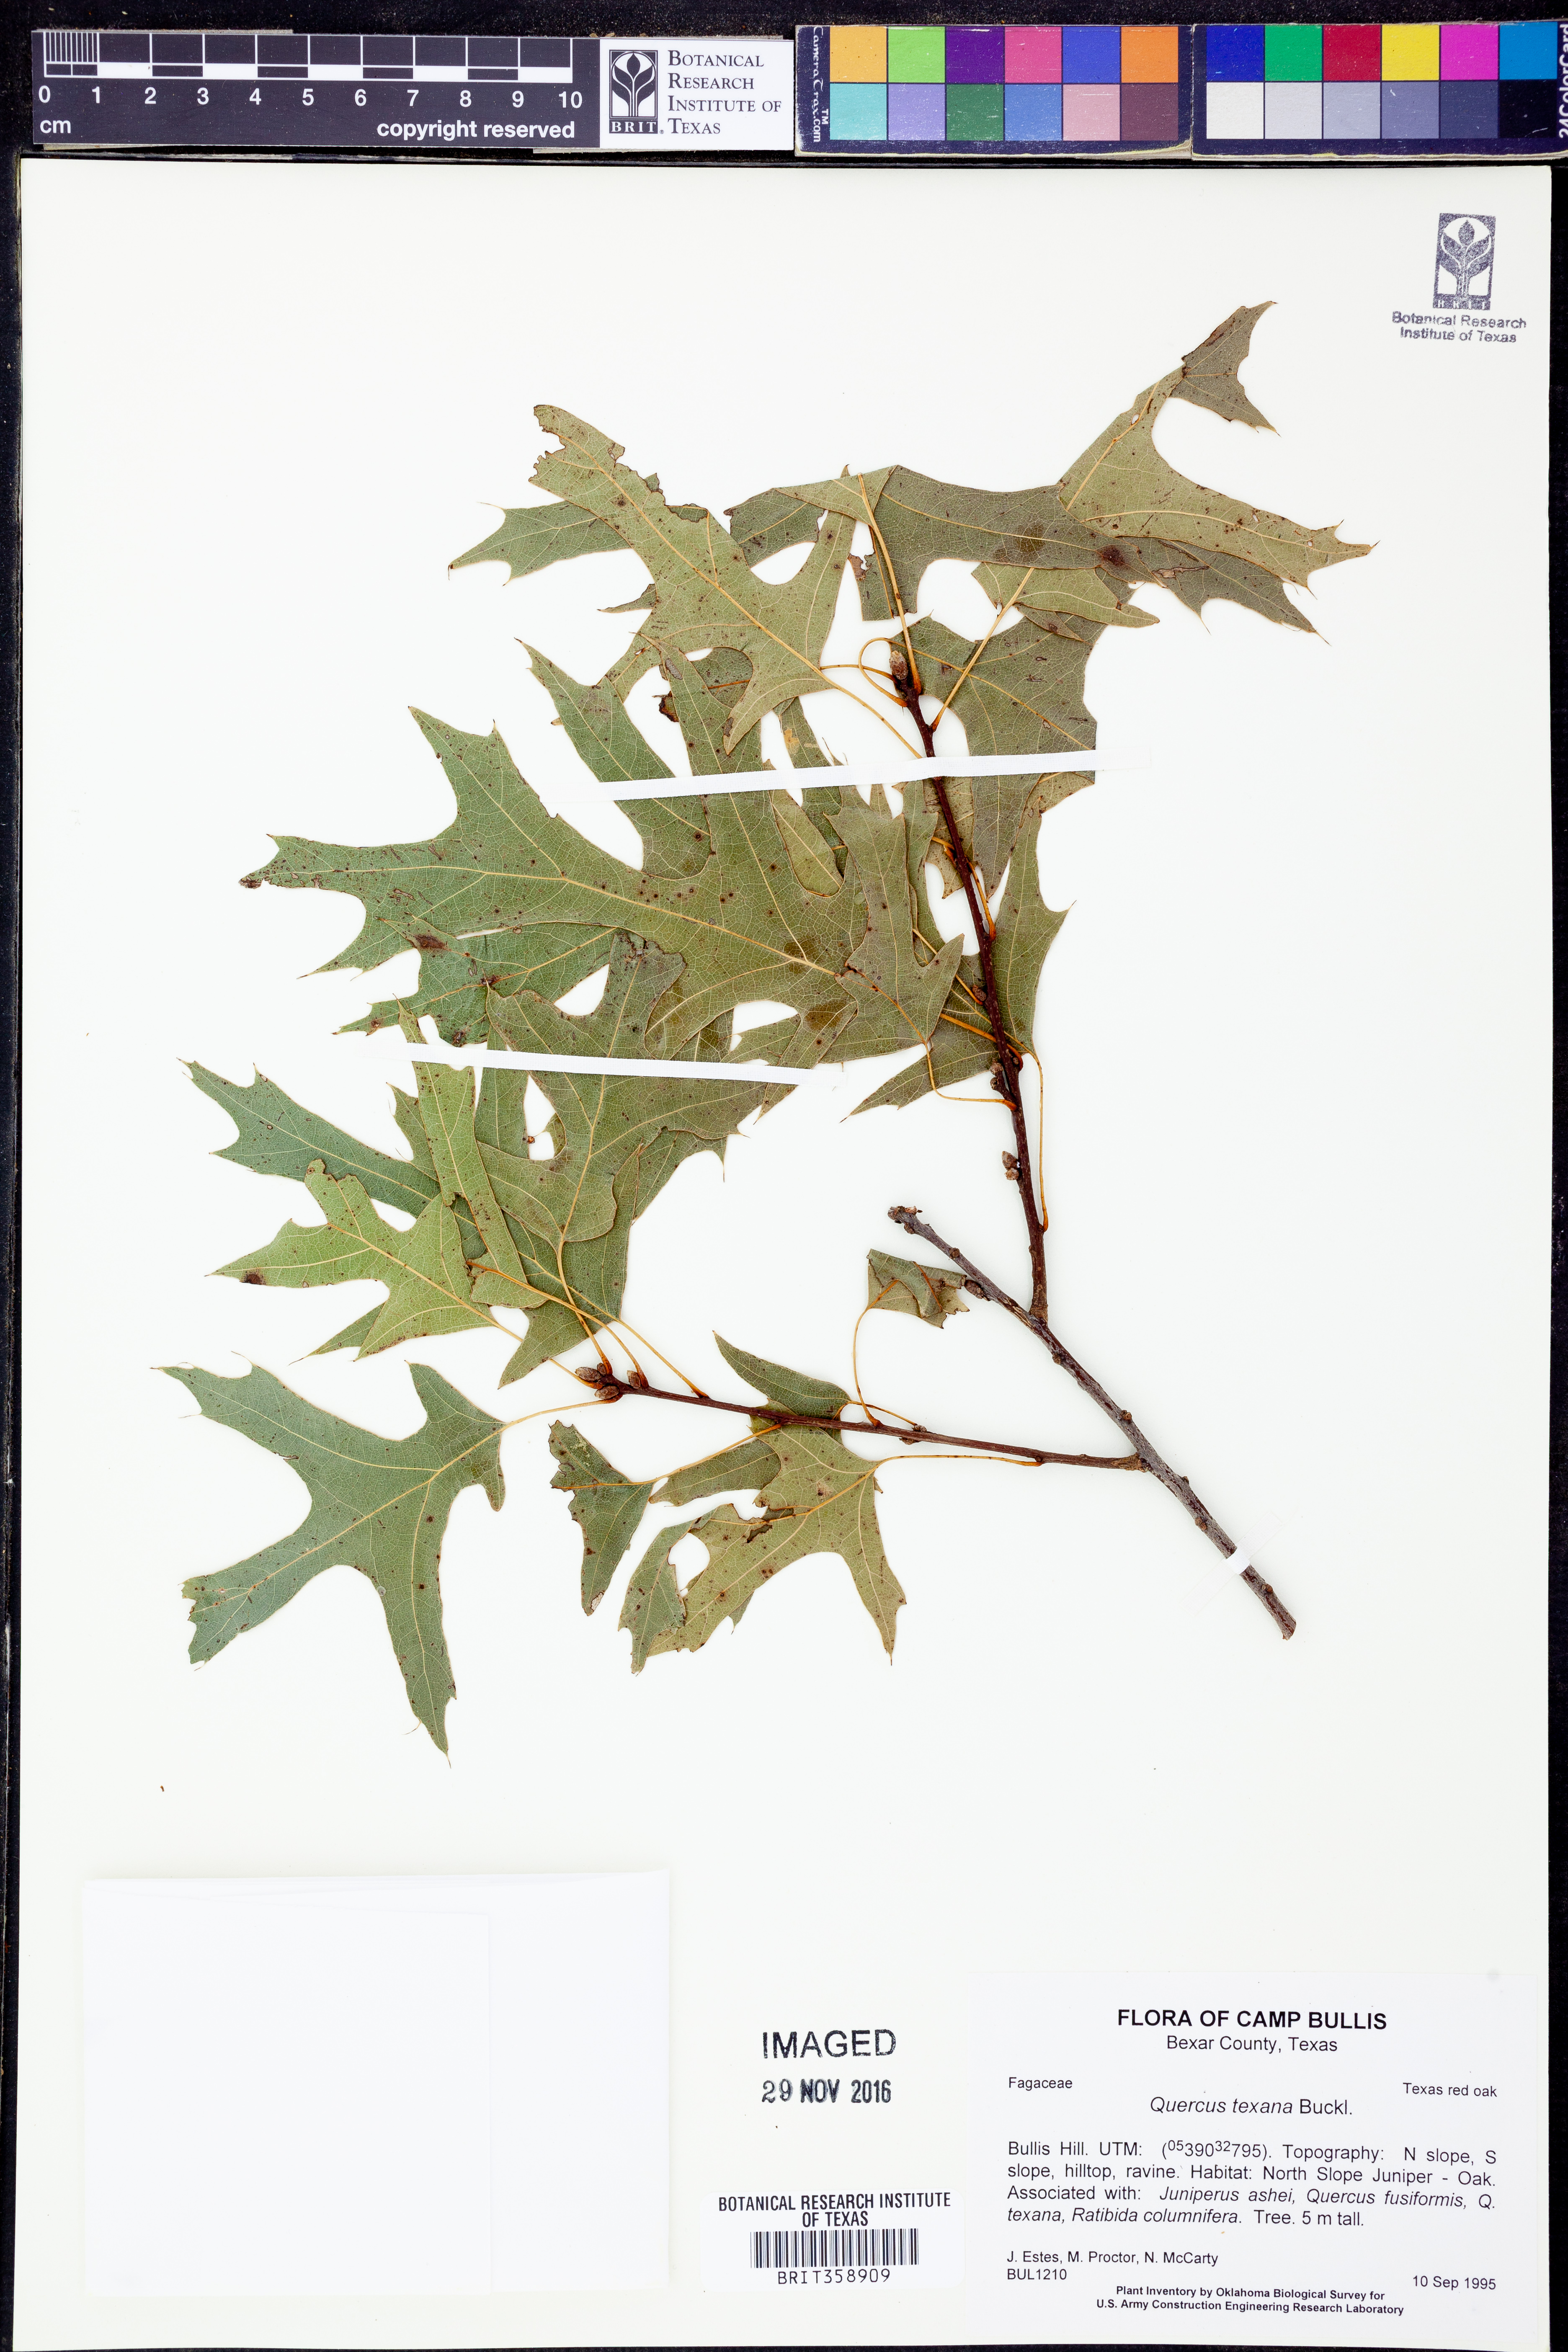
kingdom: Plantae
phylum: Tracheophyta
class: Magnoliopsida
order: Fagales
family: Fagaceae
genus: Quercus
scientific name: Quercus texana
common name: Nuttall oak
